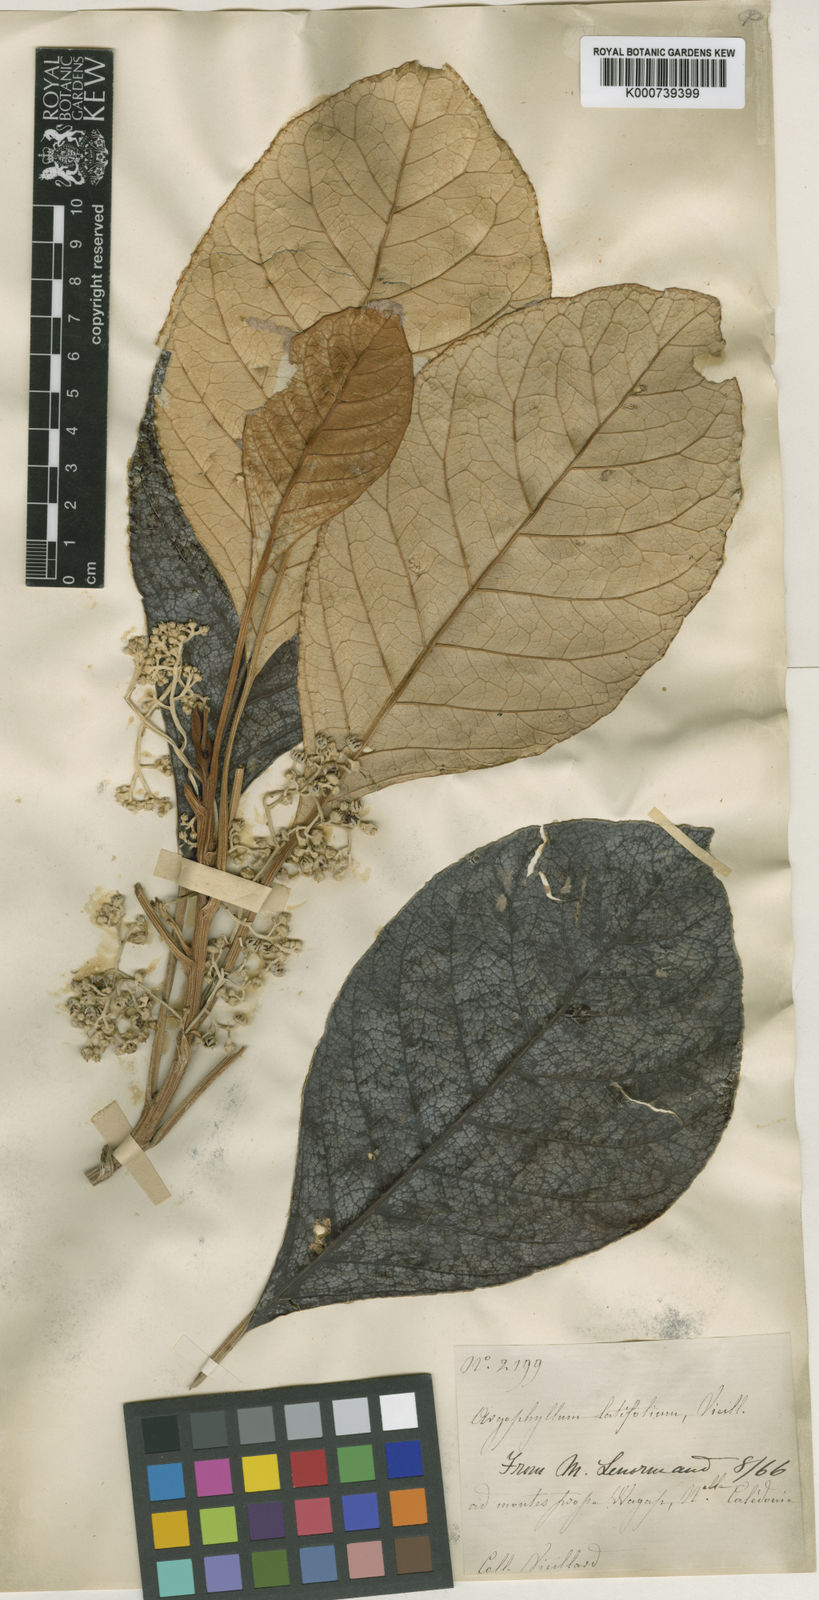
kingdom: Plantae
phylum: Tracheophyta
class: Magnoliopsida
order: Asterales
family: Argophyllaceae
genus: Argophyllum
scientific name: Argophyllum grunowii
